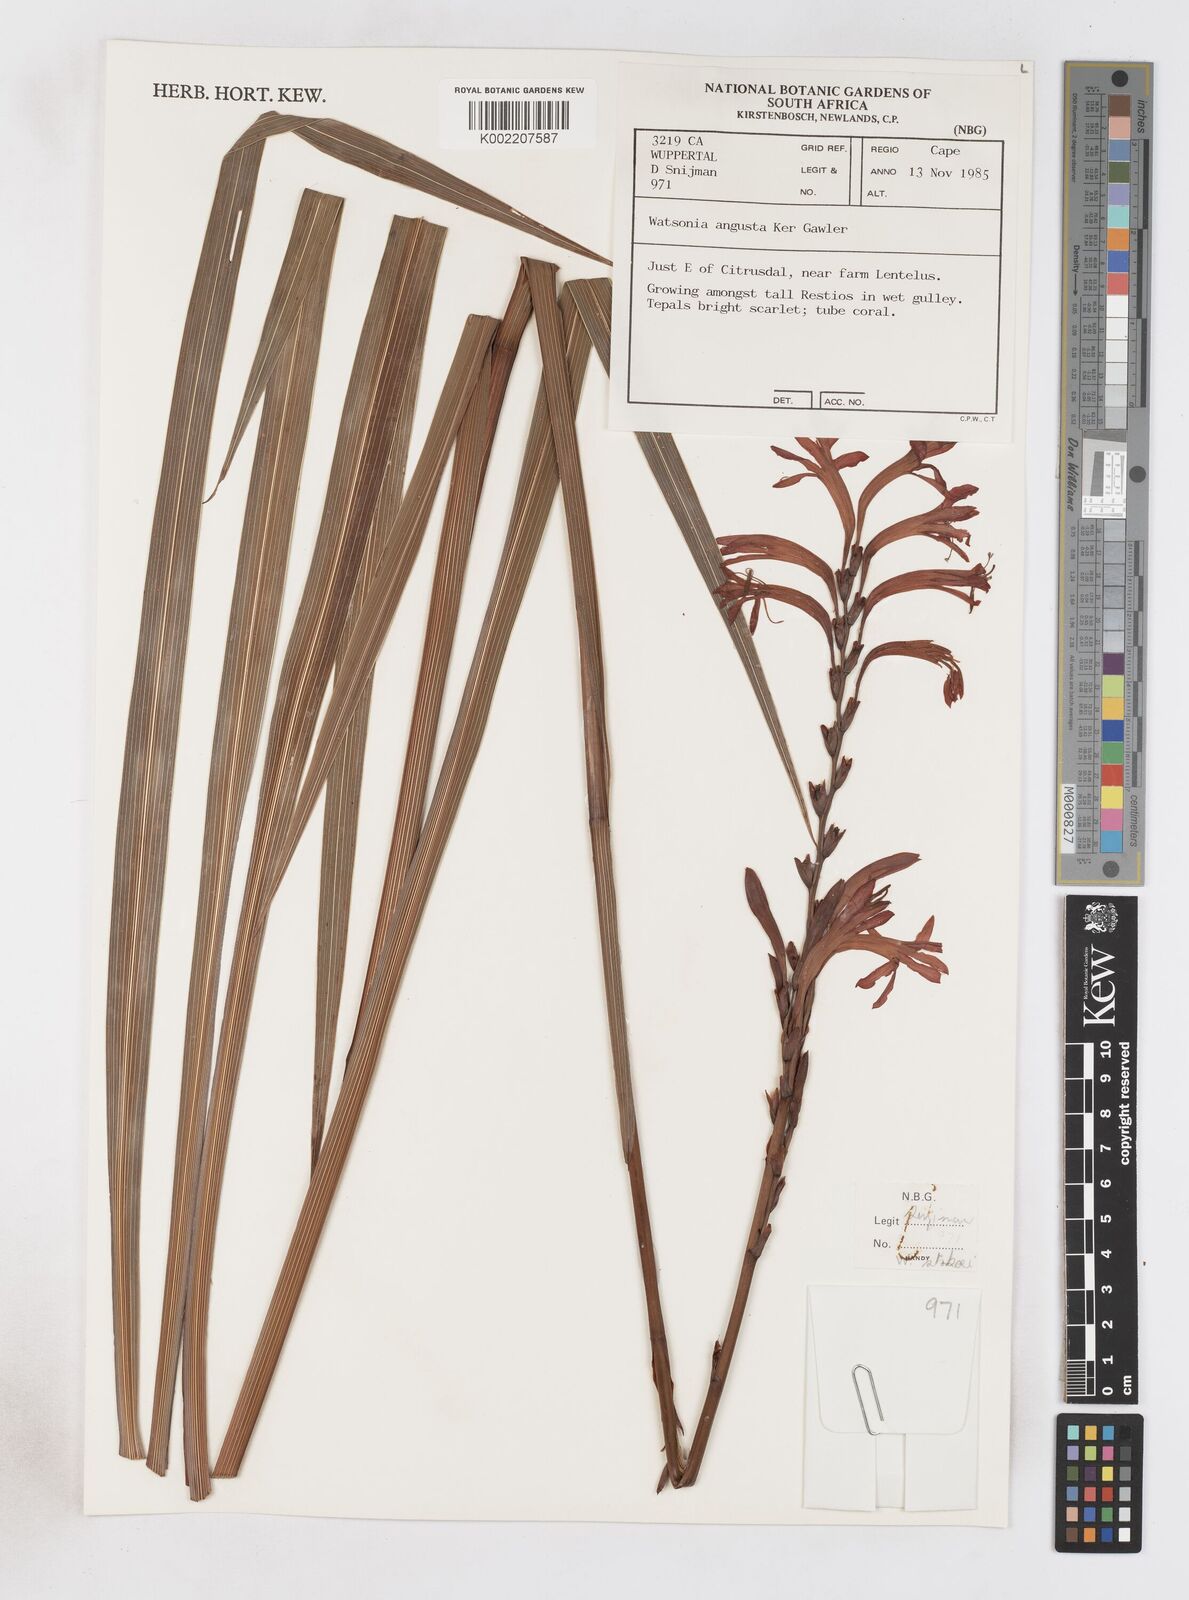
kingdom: Plantae
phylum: Tracheophyta
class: Liliopsida
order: Asparagales
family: Iridaceae
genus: Watsonia
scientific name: Watsonia angusta
